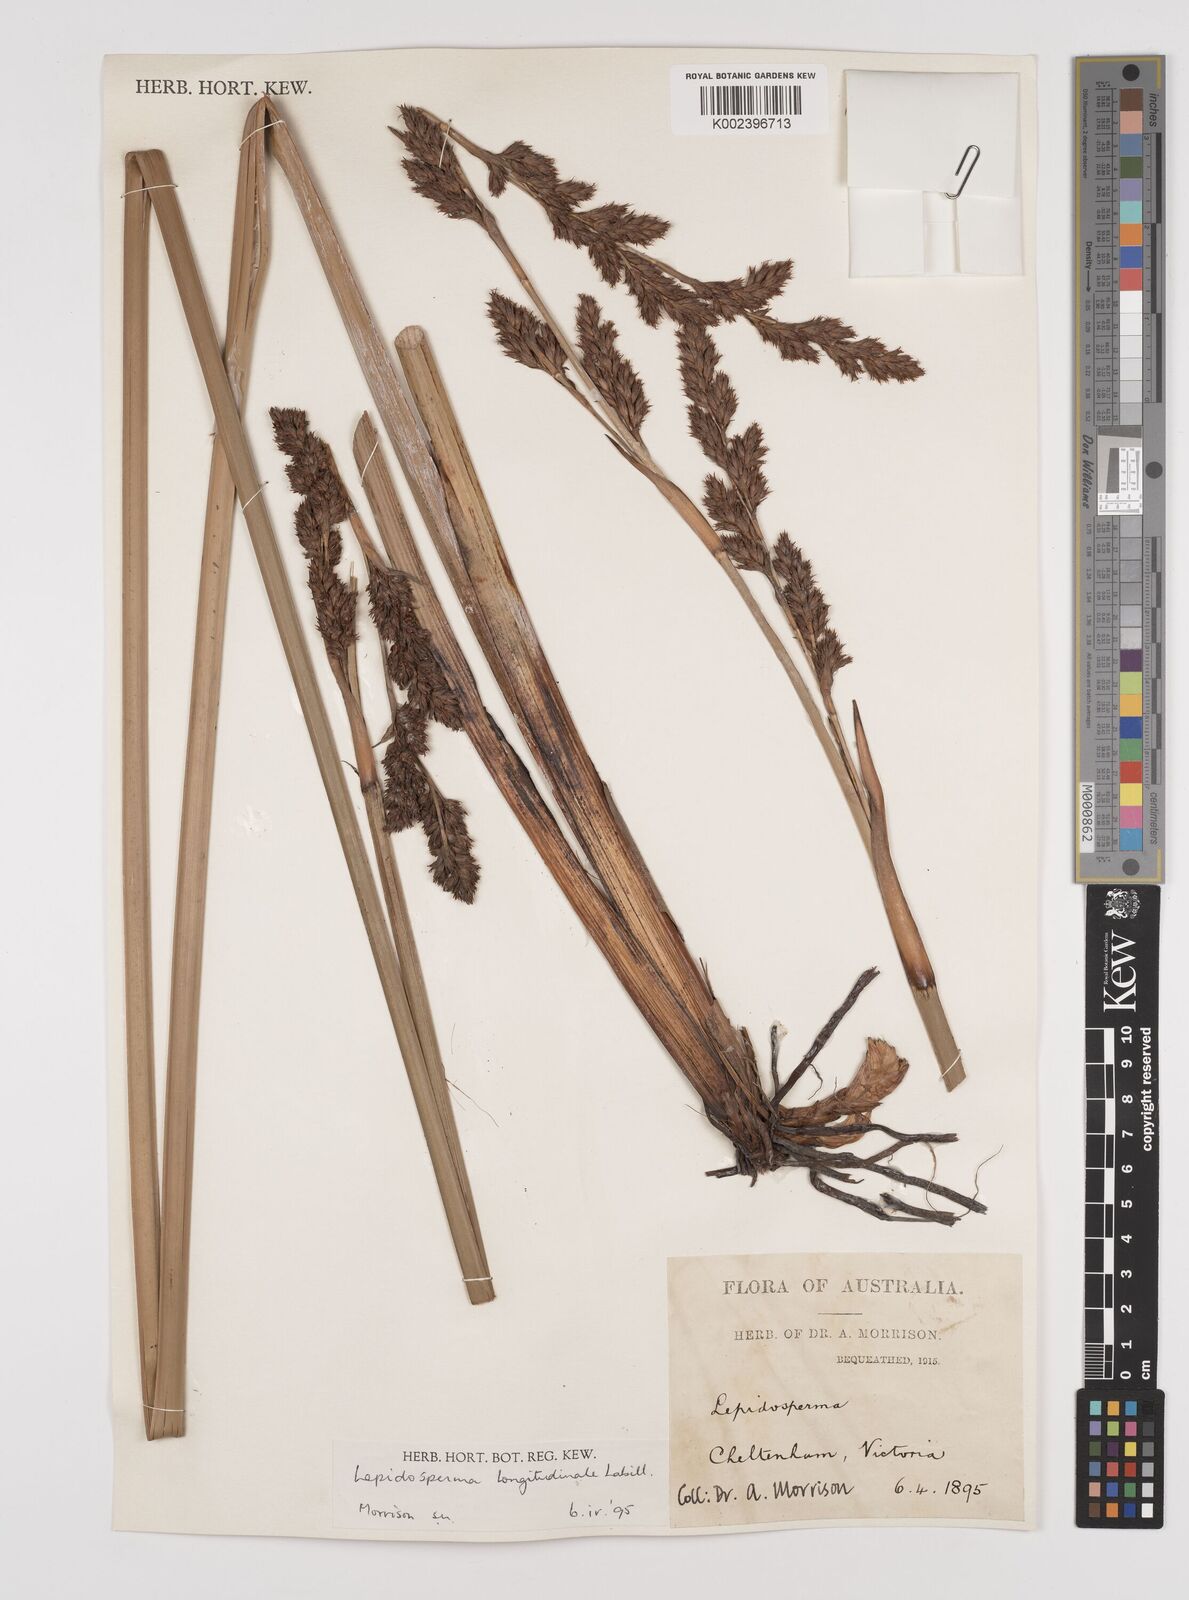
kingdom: Plantae
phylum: Tracheophyta
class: Liliopsida
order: Poales
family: Cyperaceae
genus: Lepidosperma
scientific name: Lepidosperma longitudinale
